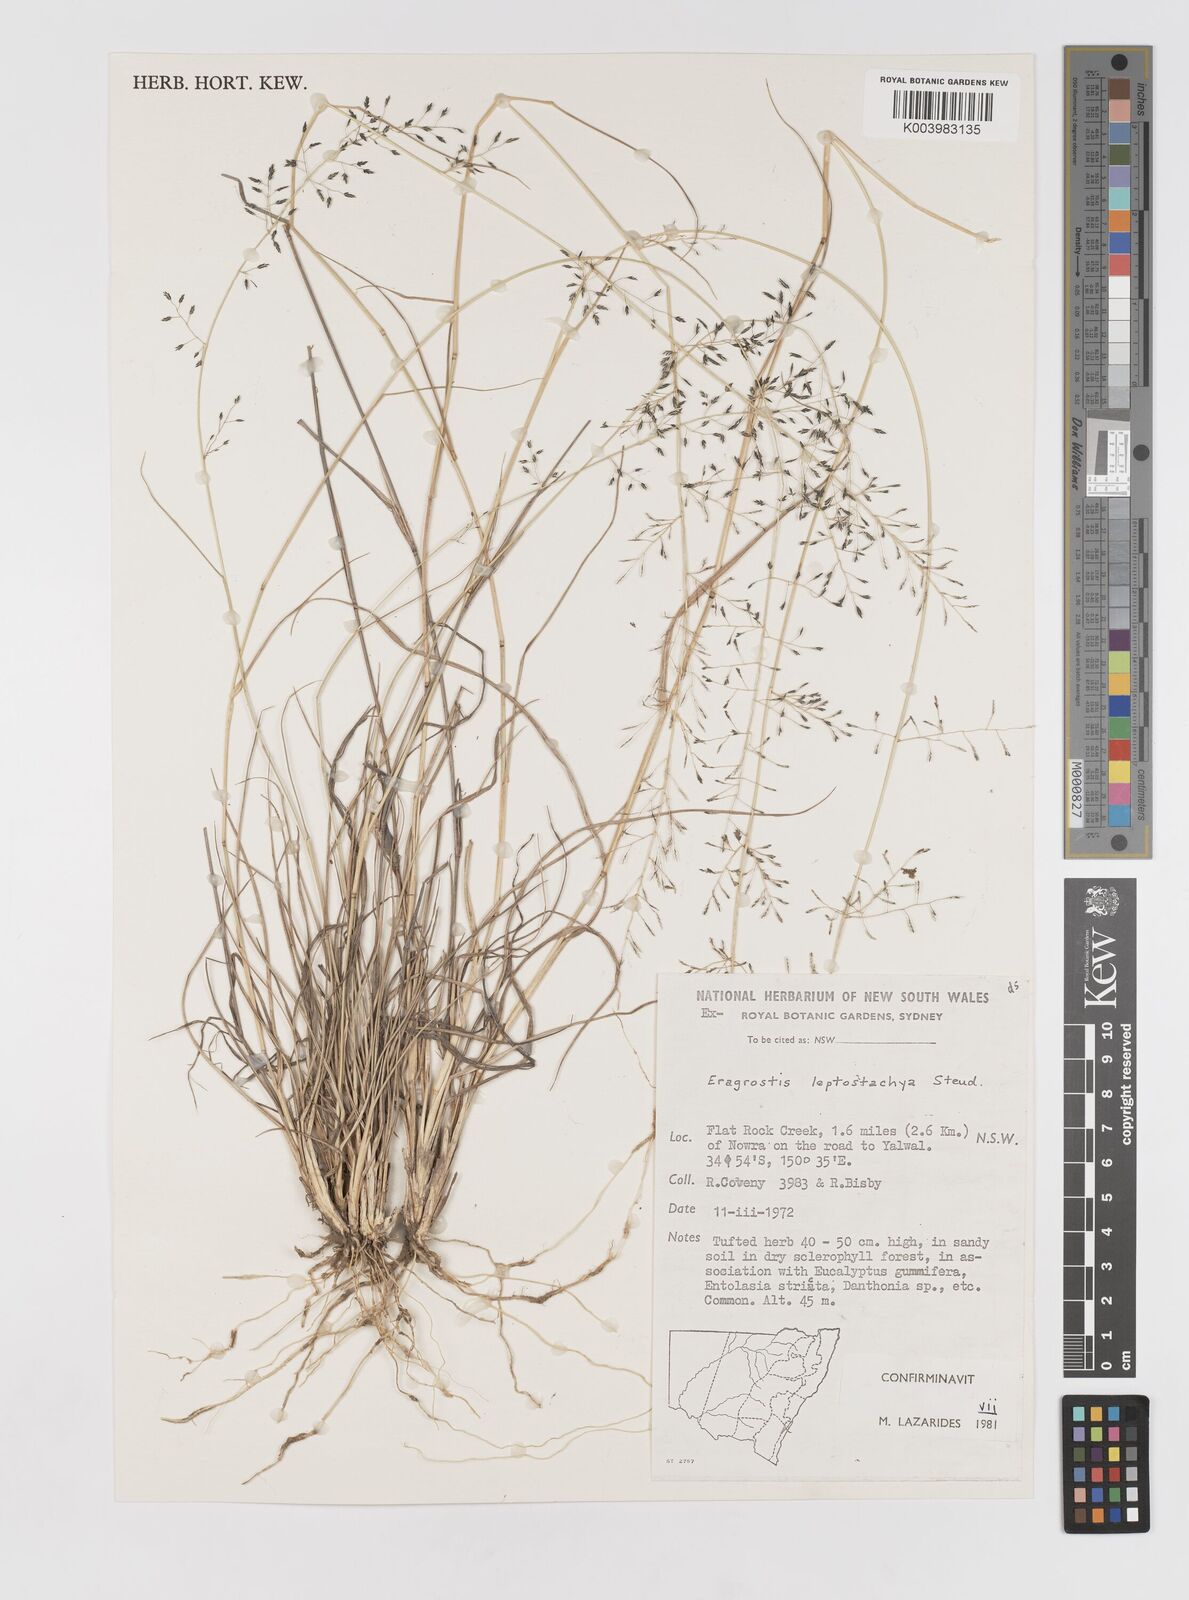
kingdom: Plantae
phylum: Tracheophyta
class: Liliopsida
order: Poales
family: Poaceae
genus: Eragrostis
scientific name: Eragrostis leptostachya
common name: Australian lovegrass
